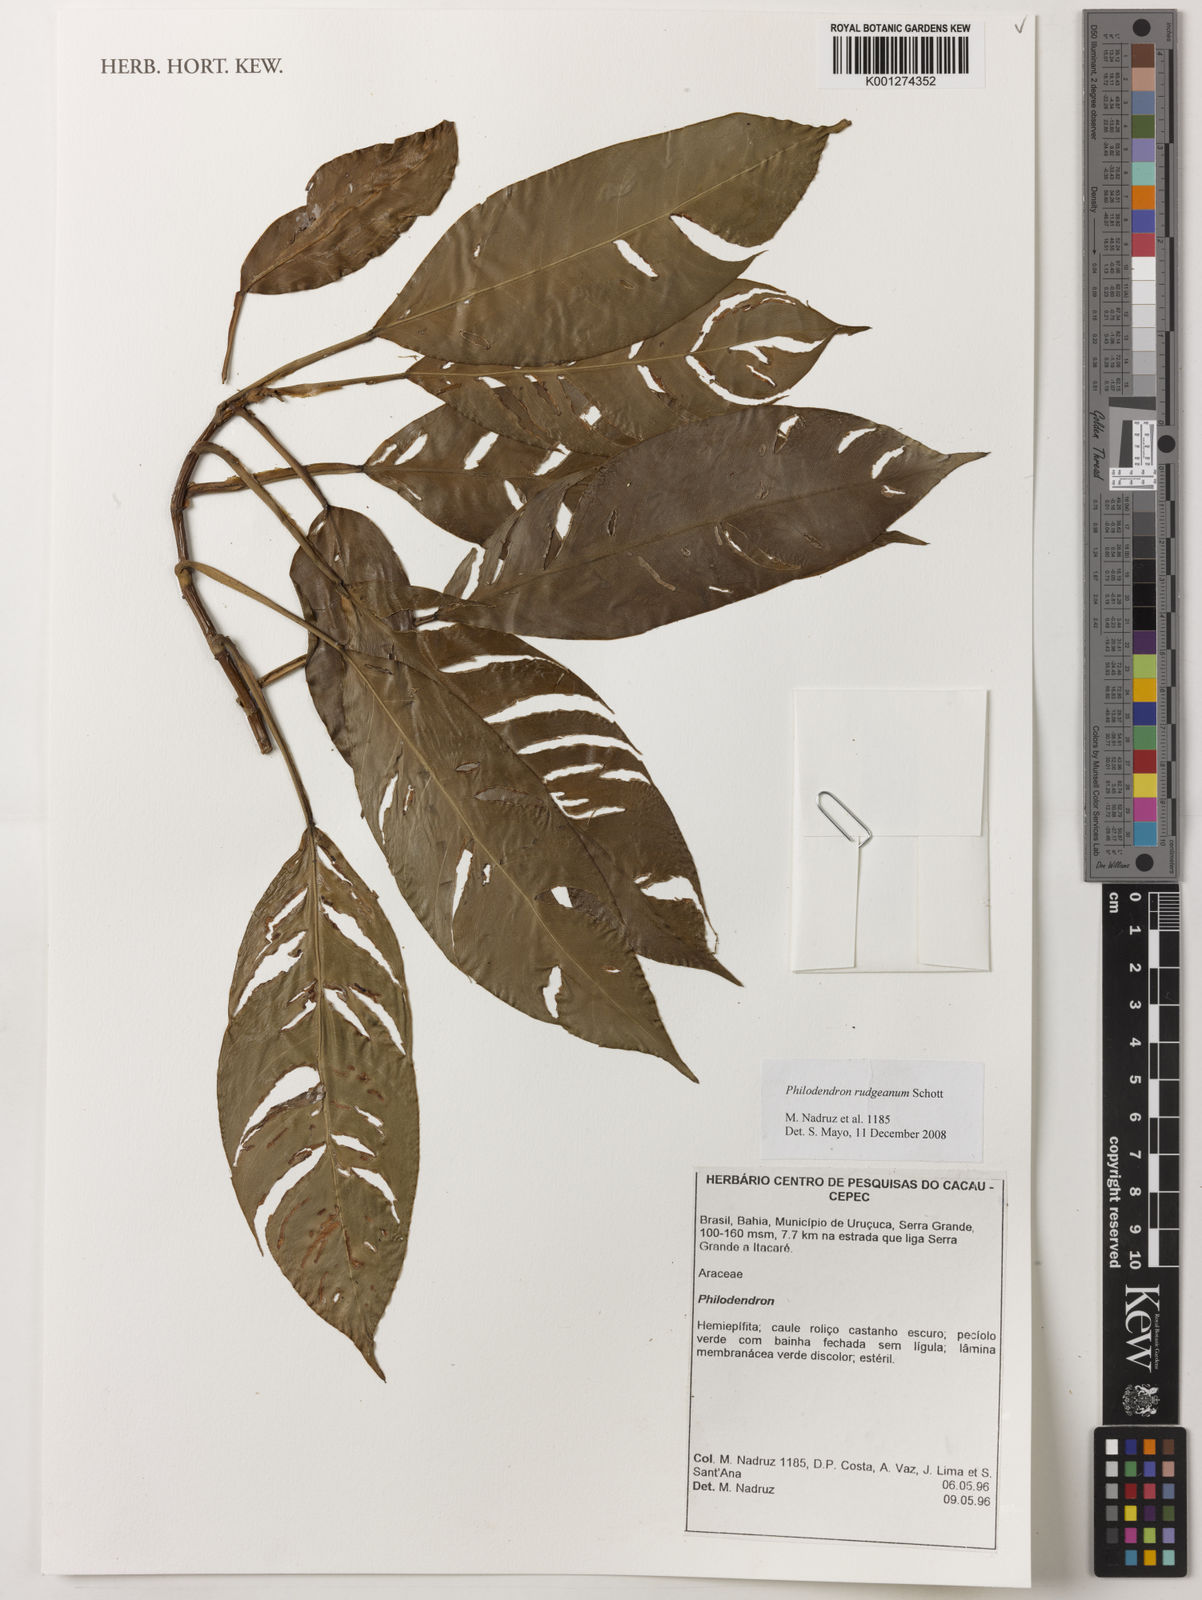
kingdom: Plantae
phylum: Tracheophyta
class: Liliopsida
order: Alismatales
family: Araceae
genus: Philodendron
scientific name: Philodendron rudgeanum
